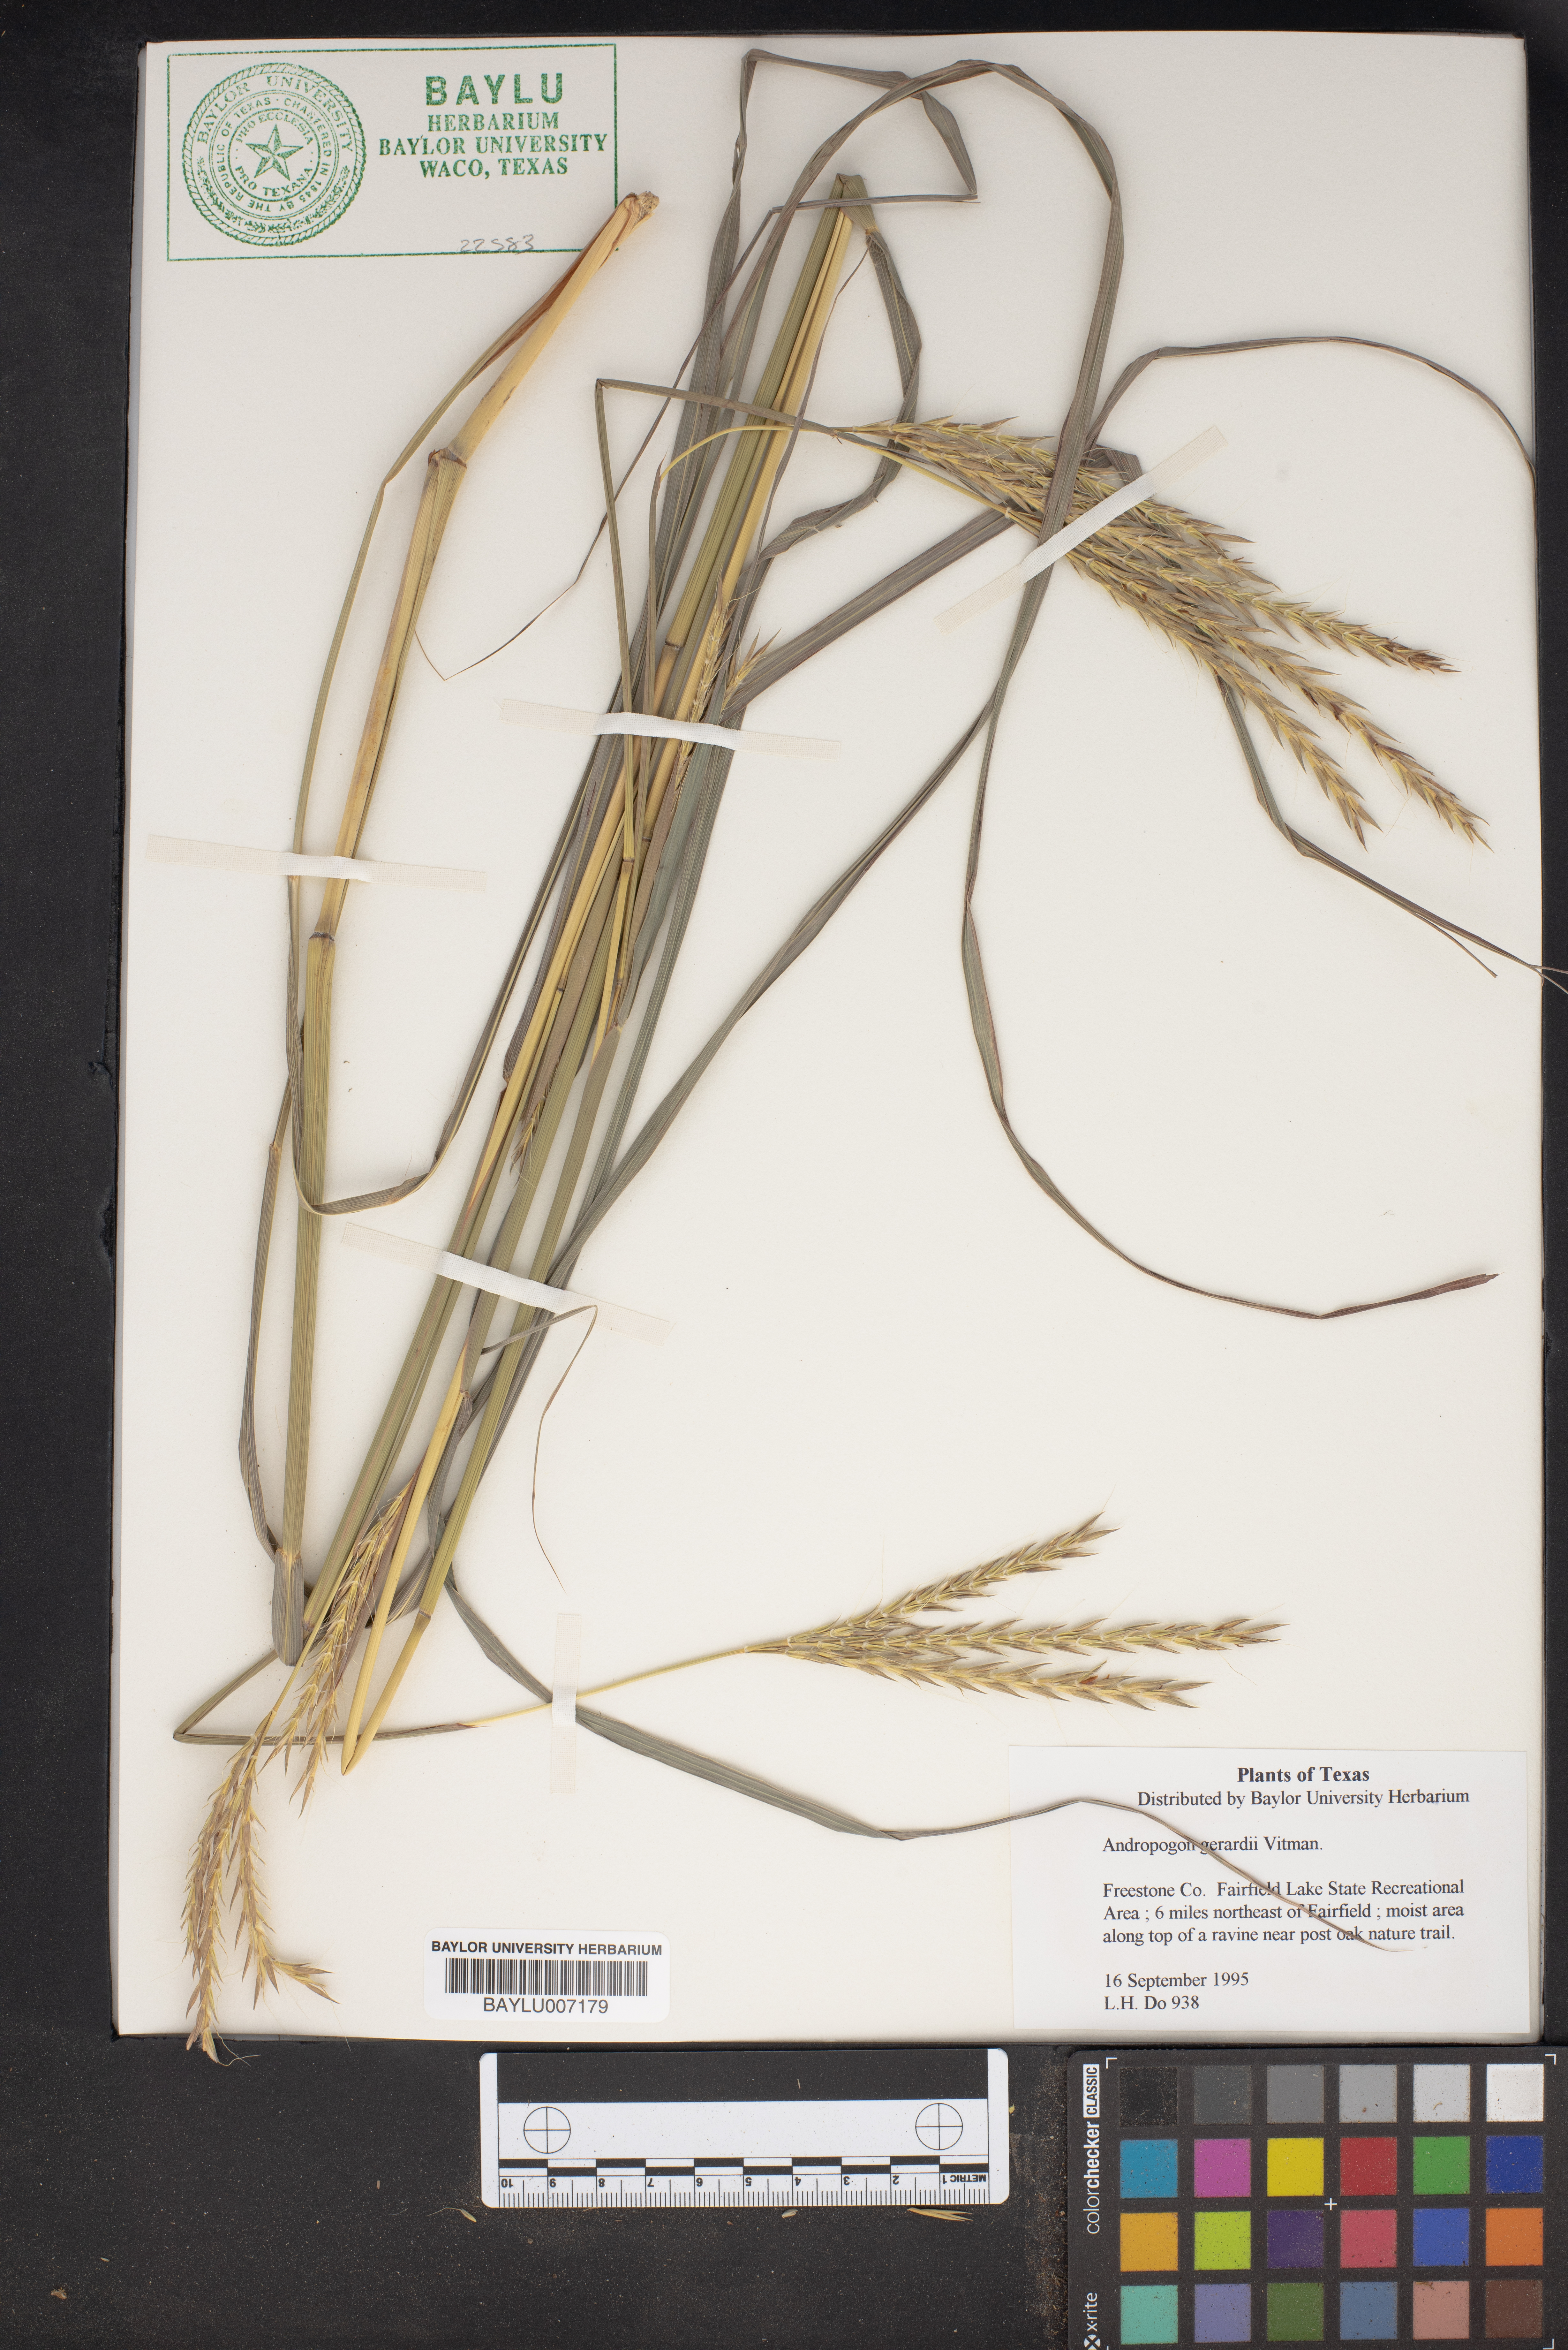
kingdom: Plantae
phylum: Tracheophyta
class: Liliopsida
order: Poales
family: Poaceae
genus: Andropogon
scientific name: Andropogon gerardi
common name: Big bluestem
